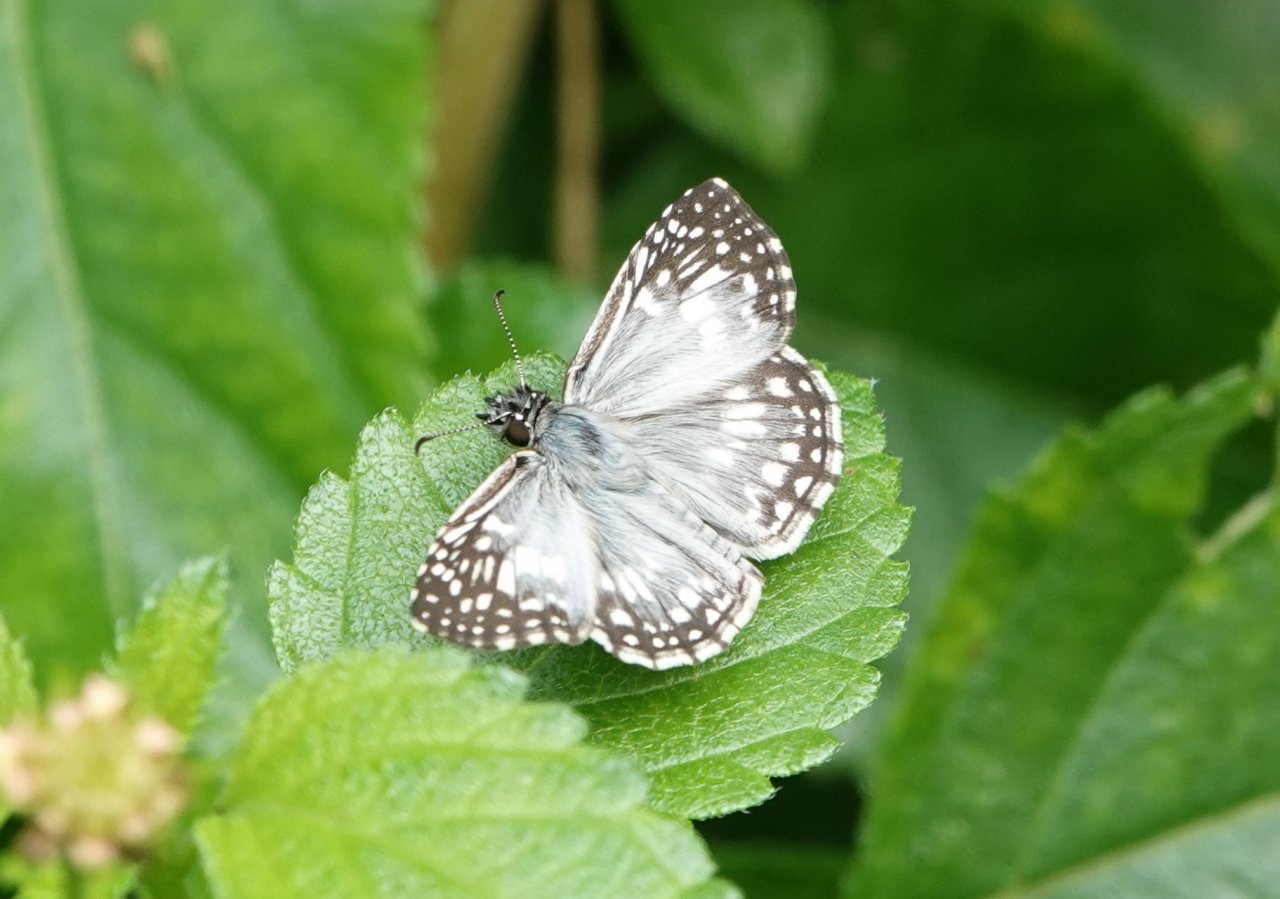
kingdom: Animalia
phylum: Arthropoda
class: Insecta
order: Lepidoptera
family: Hesperiidae
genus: Pyrgus
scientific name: Pyrgus oileus
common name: Tropical Checkered-Skipper
